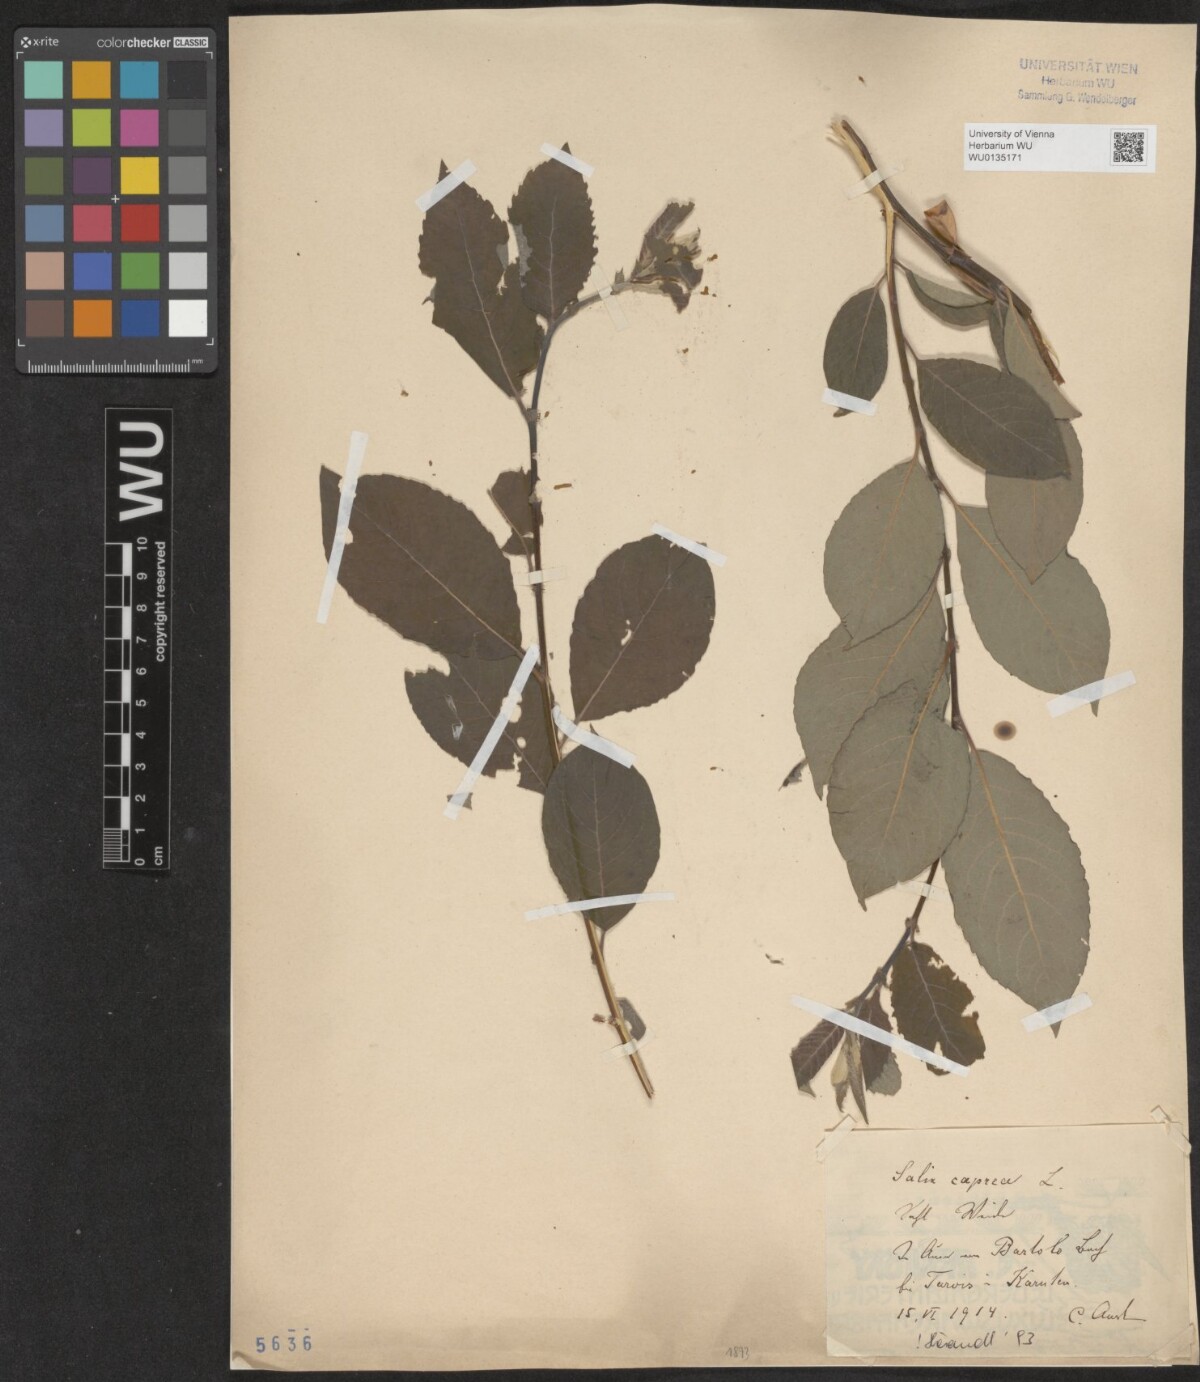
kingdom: Plantae
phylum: Tracheophyta
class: Magnoliopsida
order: Malpighiales
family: Salicaceae
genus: Salix
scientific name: Salix caprea
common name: Goat willow
